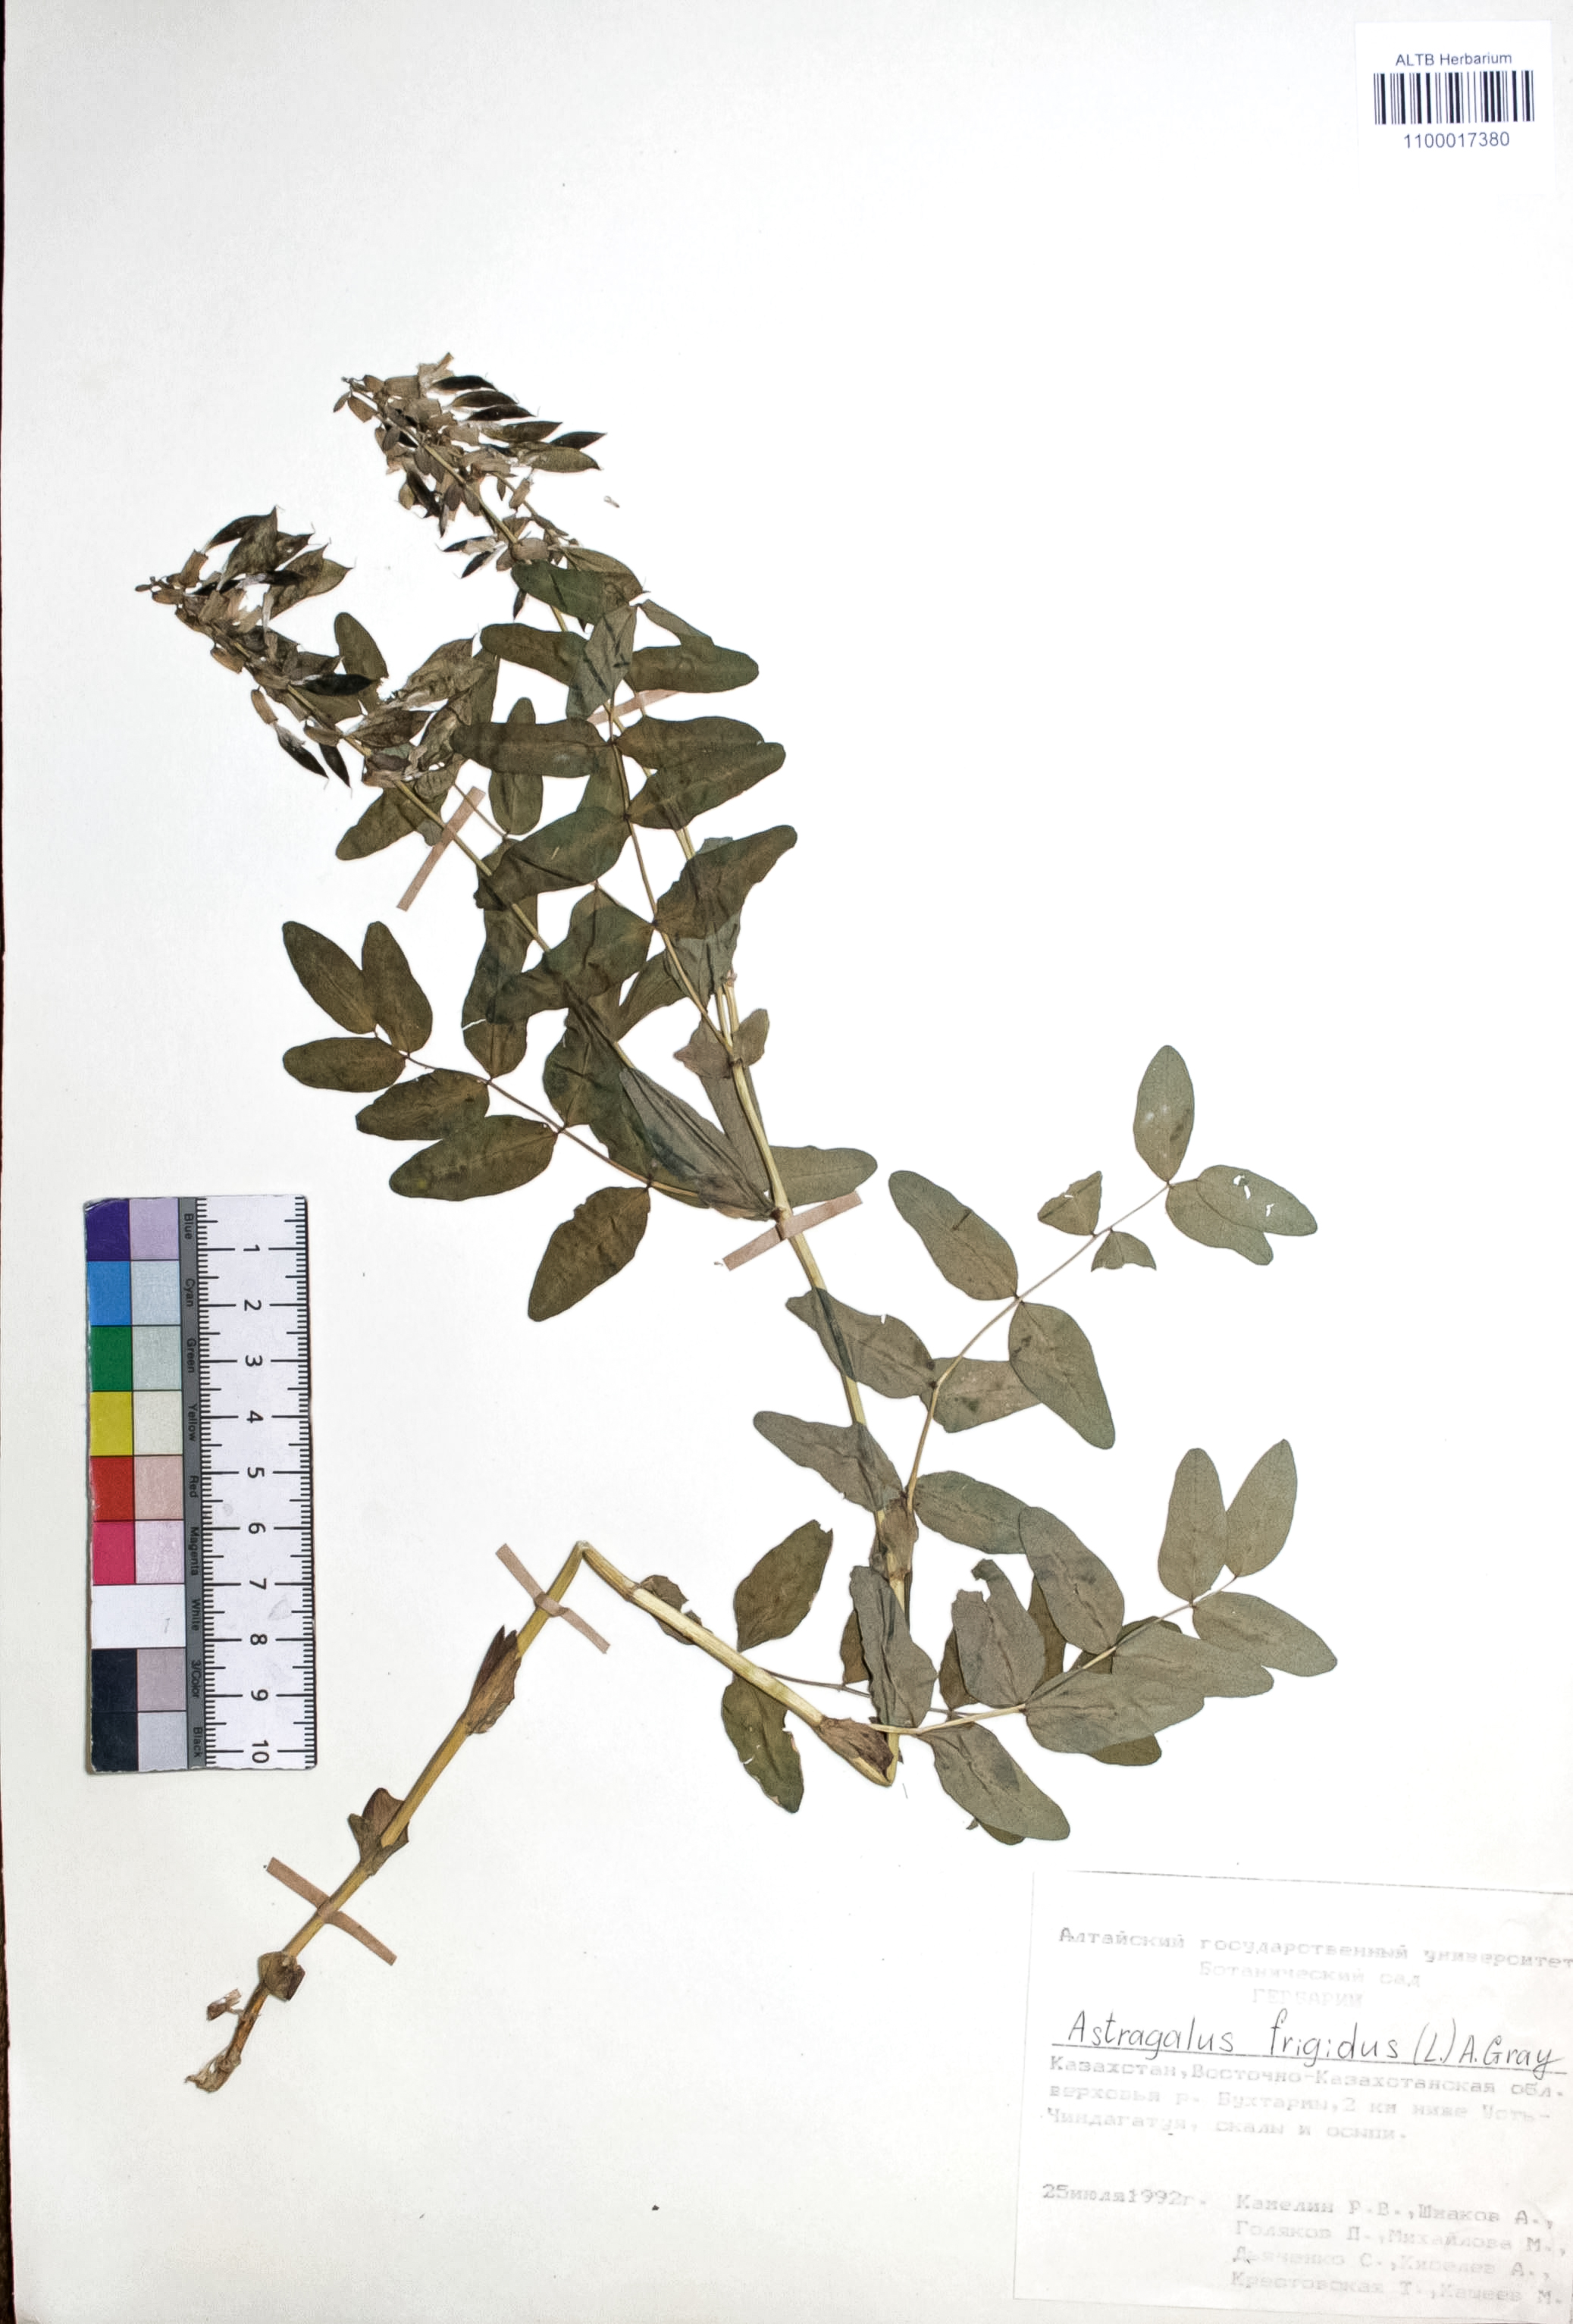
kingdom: Plantae
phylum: Tracheophyta
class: Magnoliopsida
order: Fabales
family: Fabaceae
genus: Astragalus
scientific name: Astragalus frigidus
